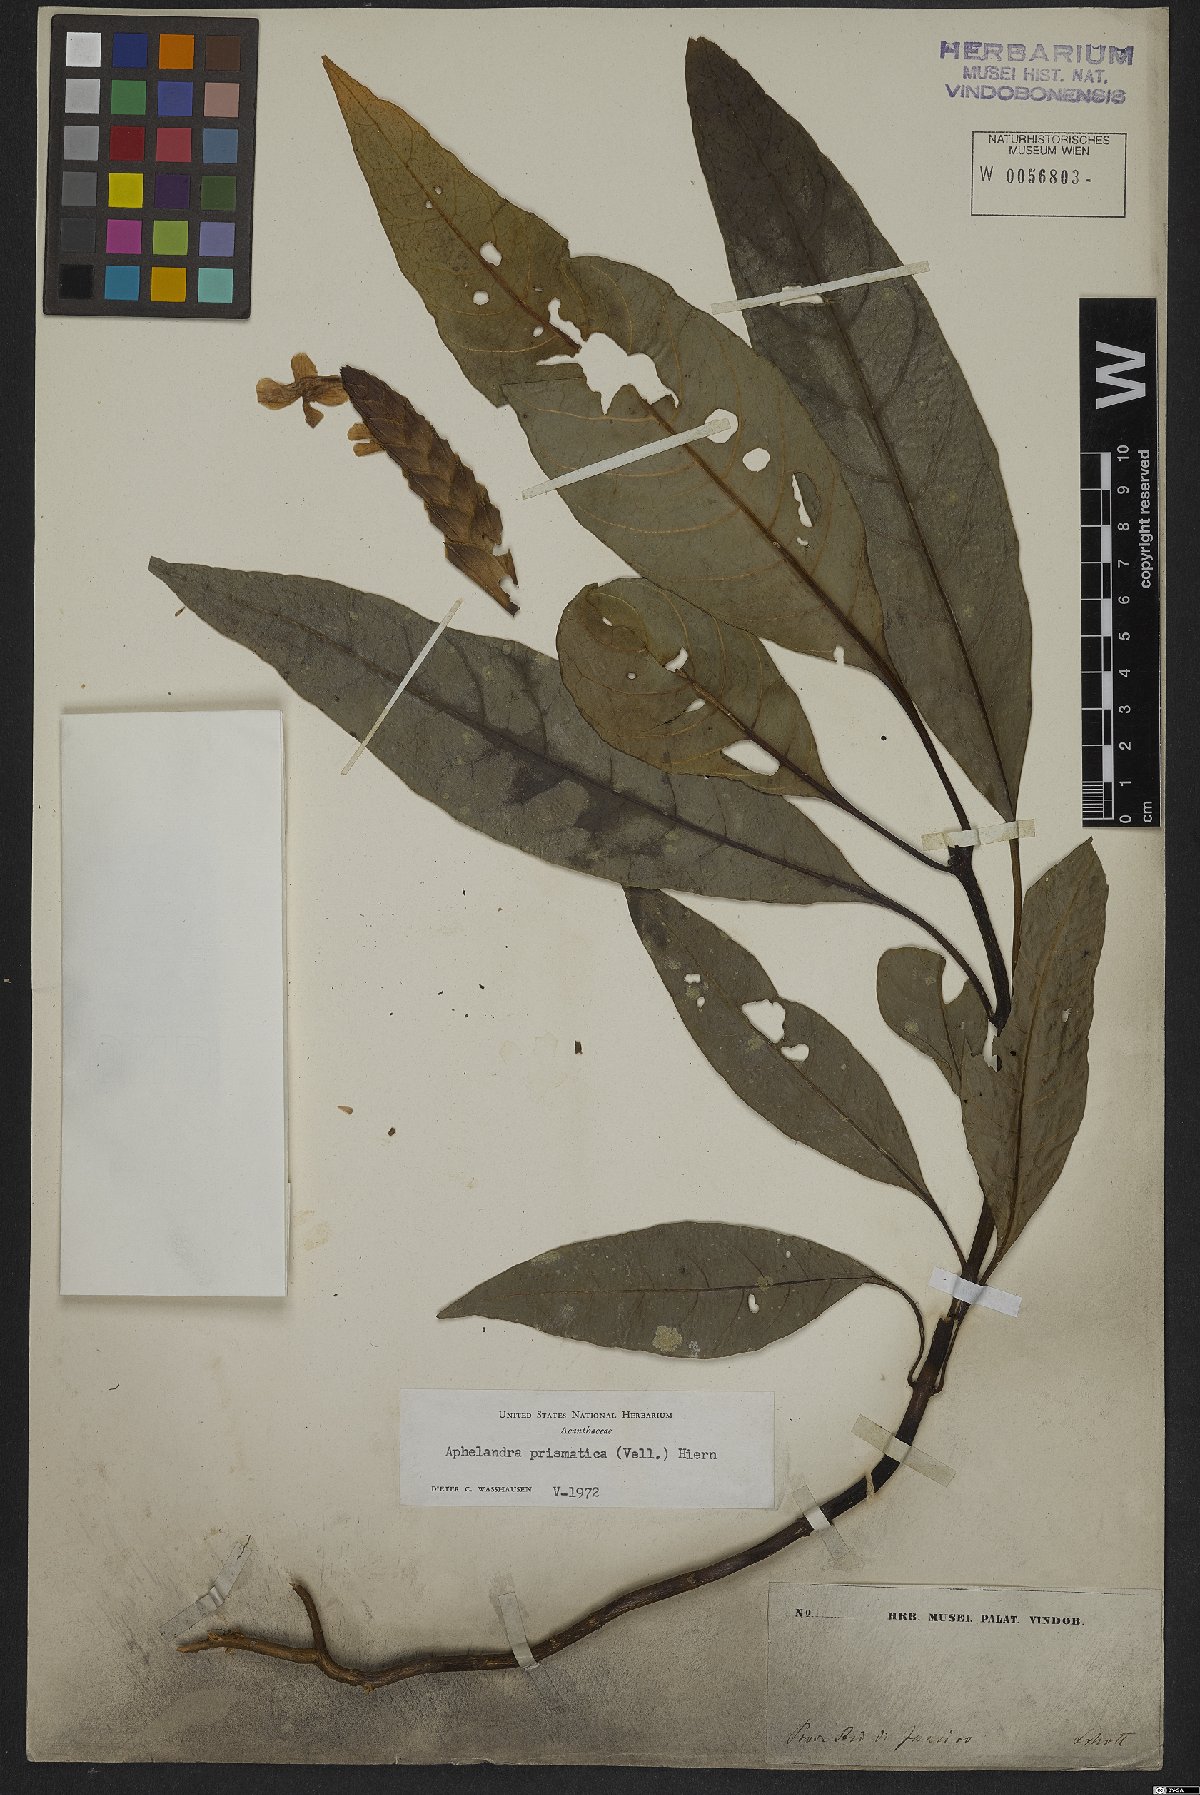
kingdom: Plantae
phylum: Tracheophyta
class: Magnoliopsida
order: Lamiales
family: Acanthaceae
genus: Aphelandra
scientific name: Aphelandra prismatica
